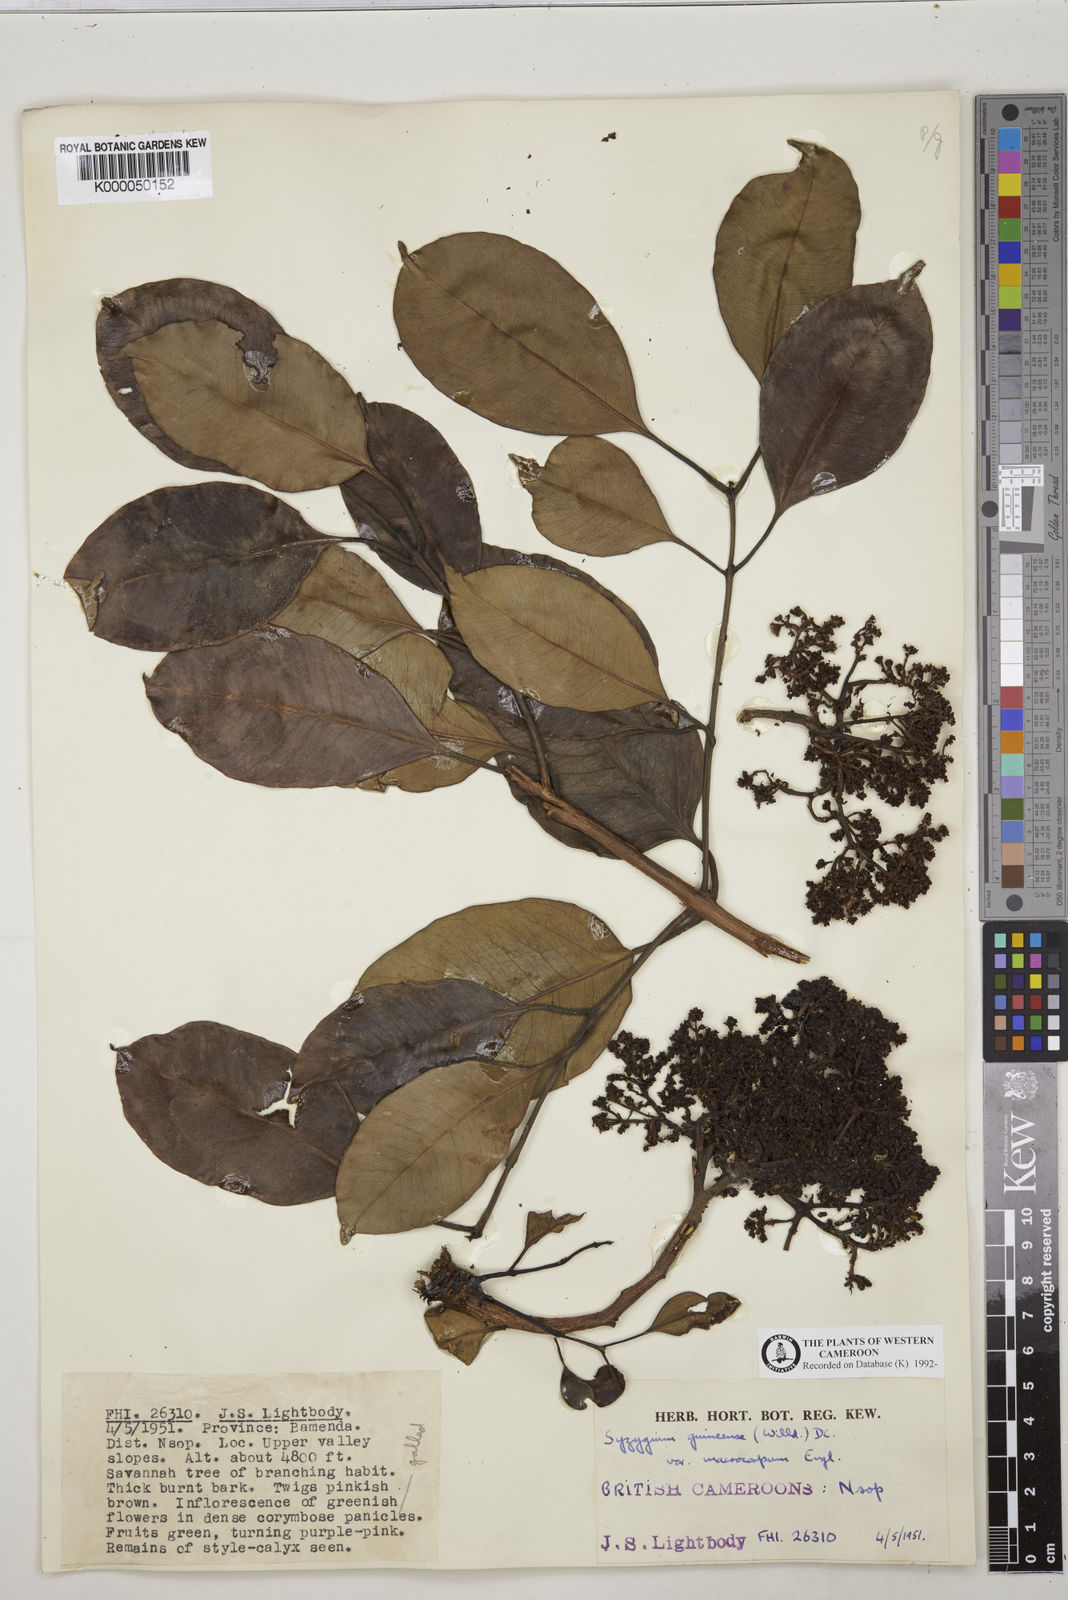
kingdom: Plantae
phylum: Tracheophyta
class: Magnoliopsida
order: Myrtales
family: Myrtaceae
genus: Syzygium
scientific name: Syzygium guineense
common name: Water-pear
